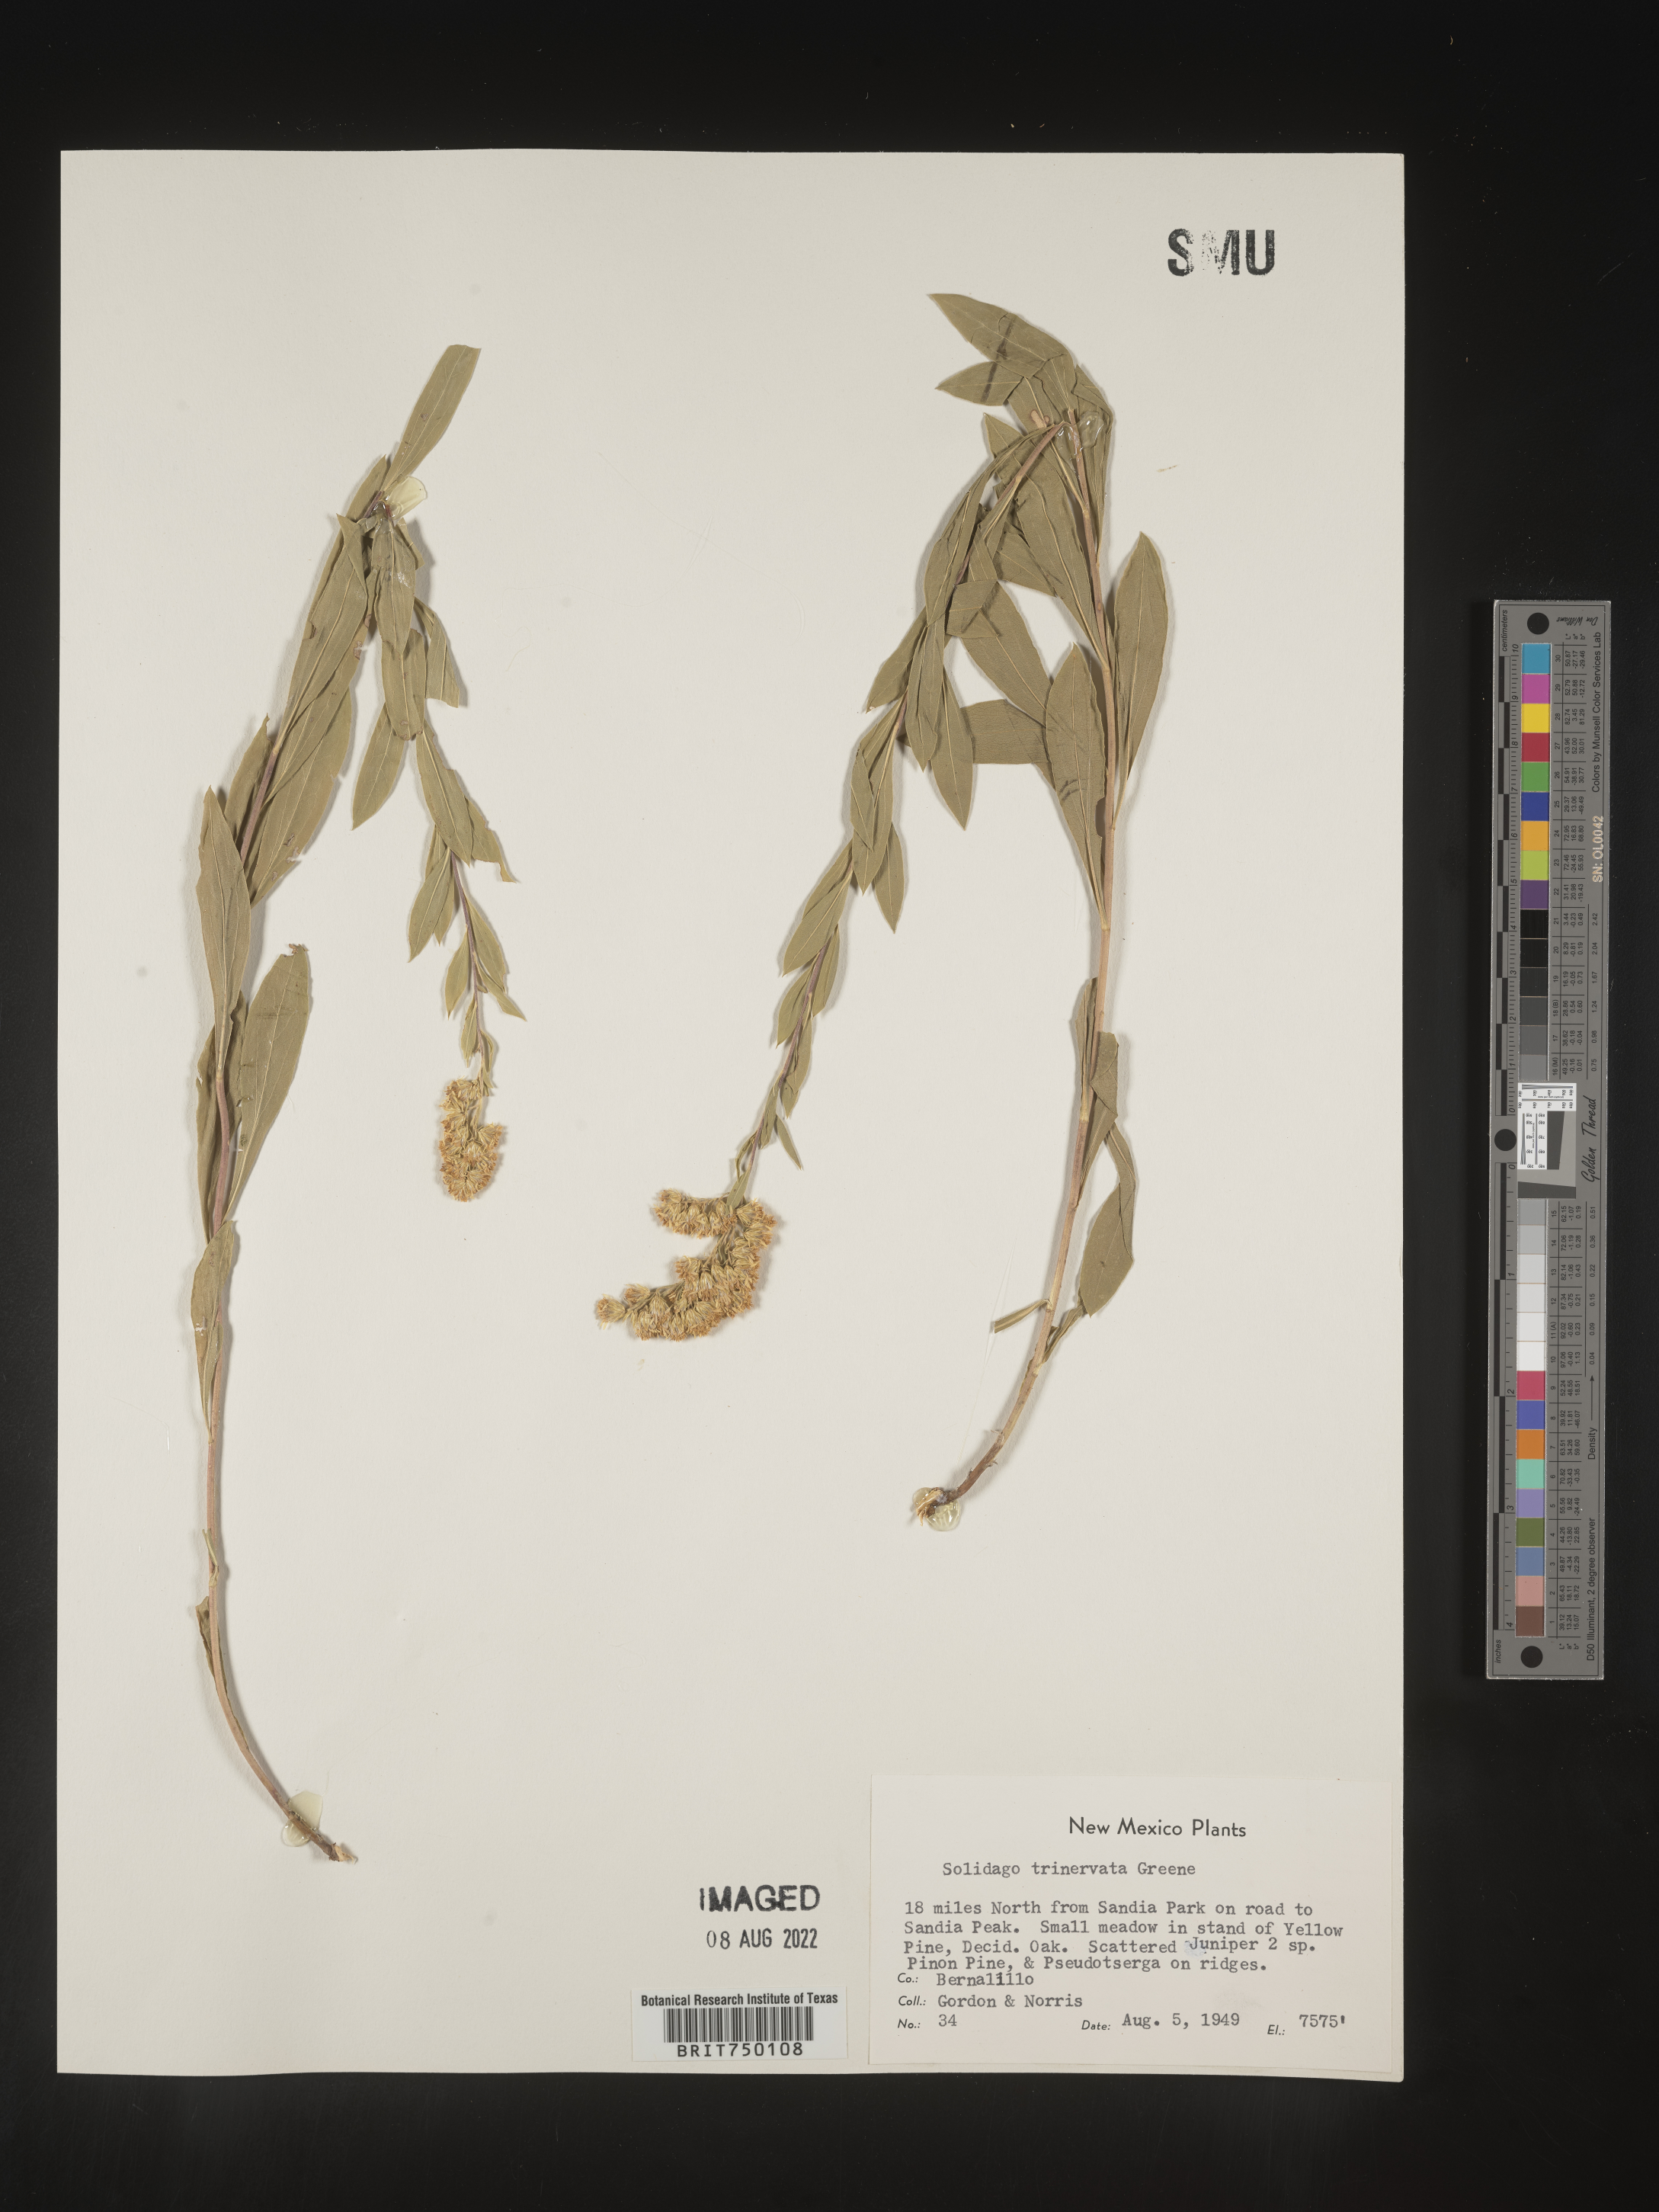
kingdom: Plantae
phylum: Tracheophyta
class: Magnoliopsida
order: Asterales
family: Asteraceae
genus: Solidago
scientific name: Solidago velutina
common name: Three-nerve goldenrod
